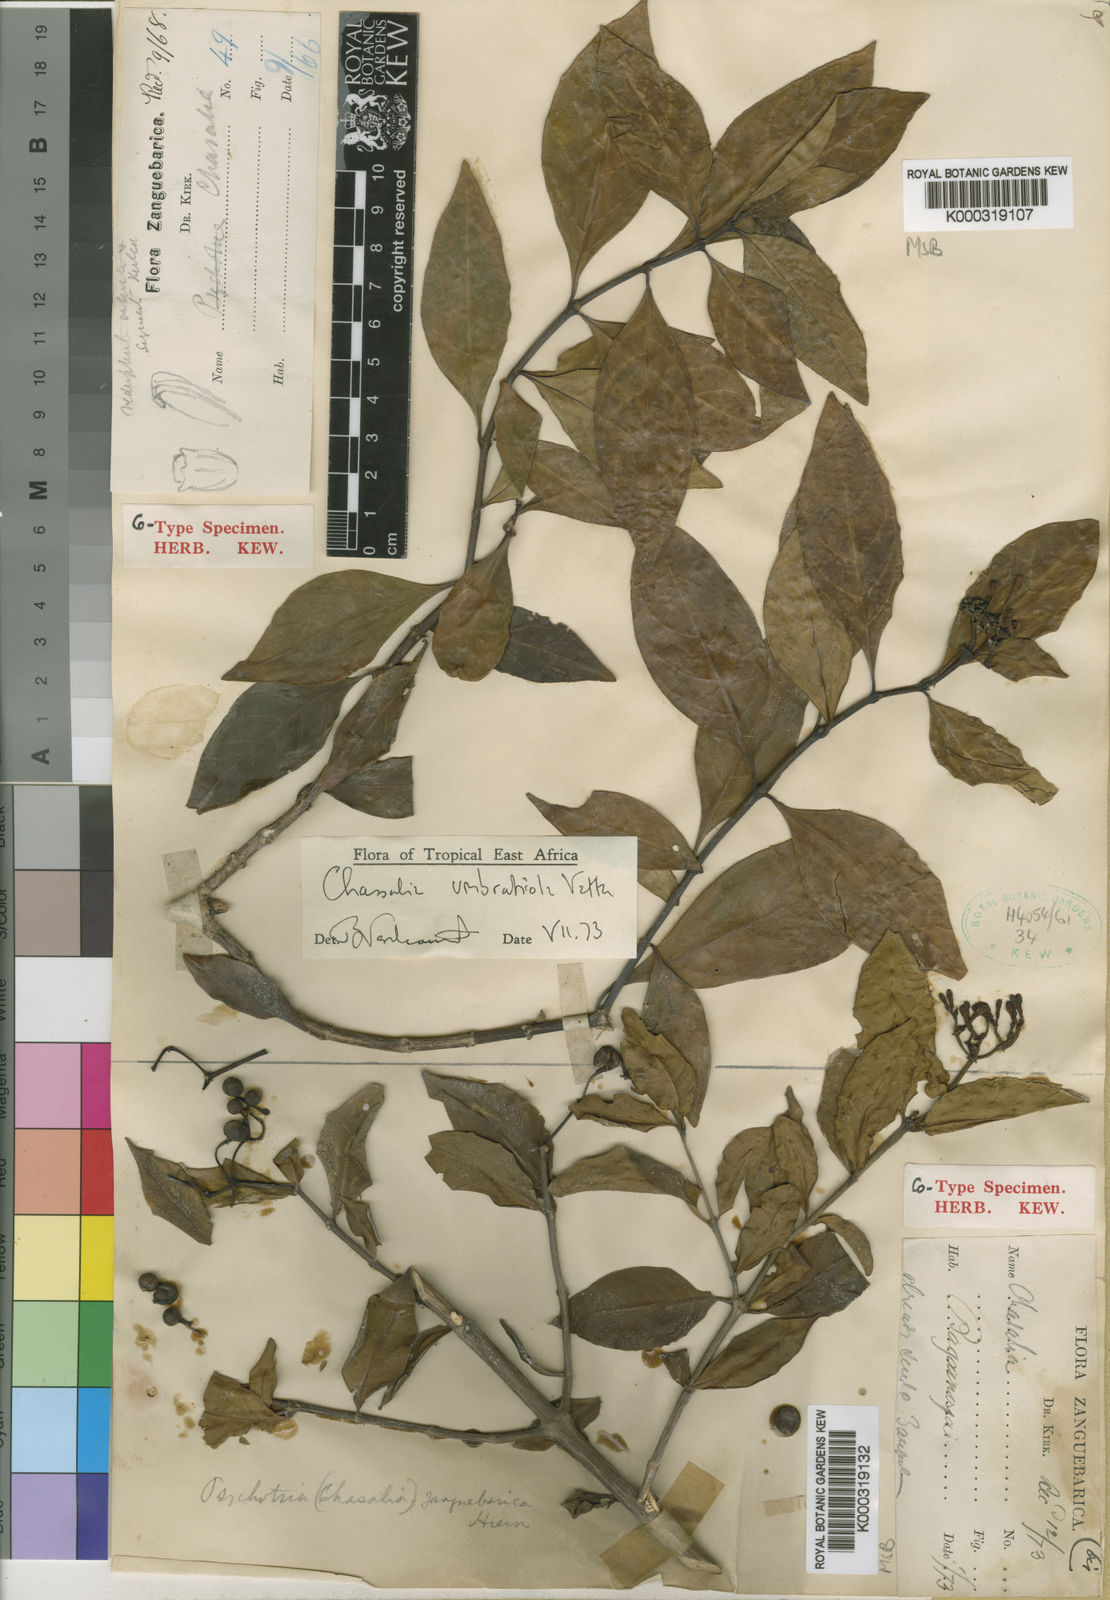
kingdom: Plantae
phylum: Tracheophyta
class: Magnoliopsida
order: Gentianales
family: Rubiaceae
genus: Chassalia
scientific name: Chassalia umbraticola
